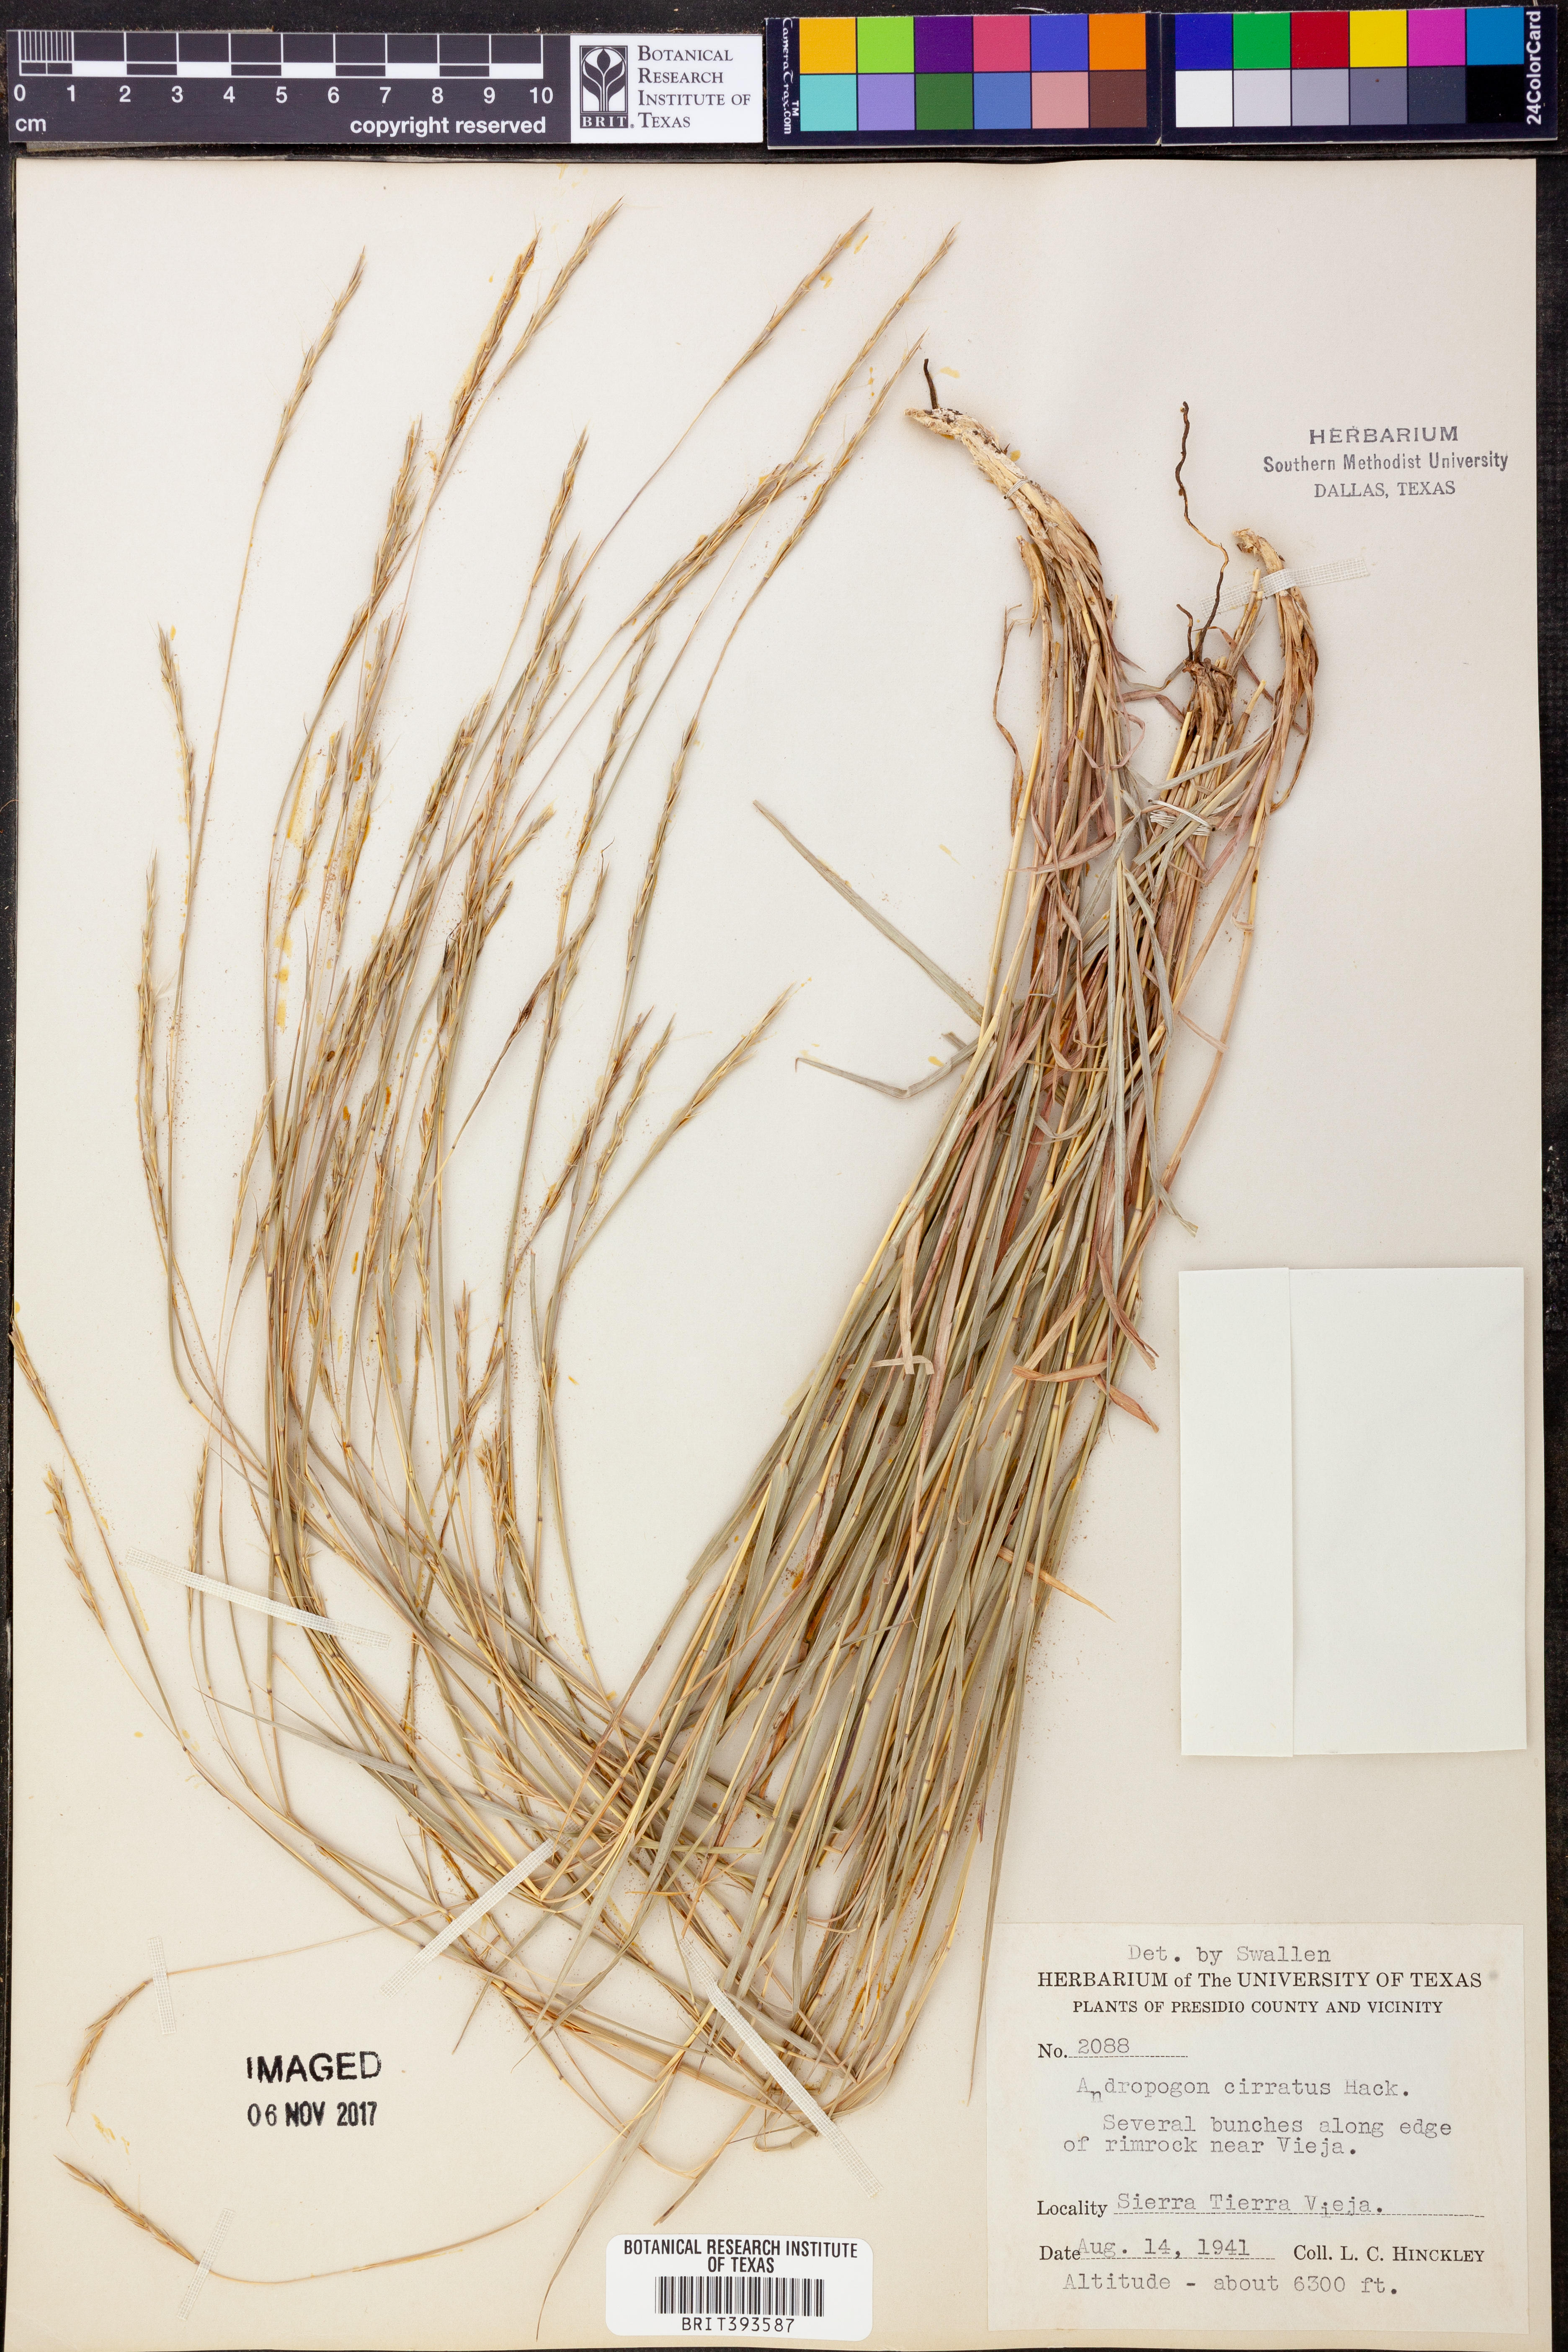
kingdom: Plantae
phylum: Tracheophyta
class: Liliopsida
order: Poales
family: Poaceae
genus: Andropogon
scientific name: Andropogon cirratus
